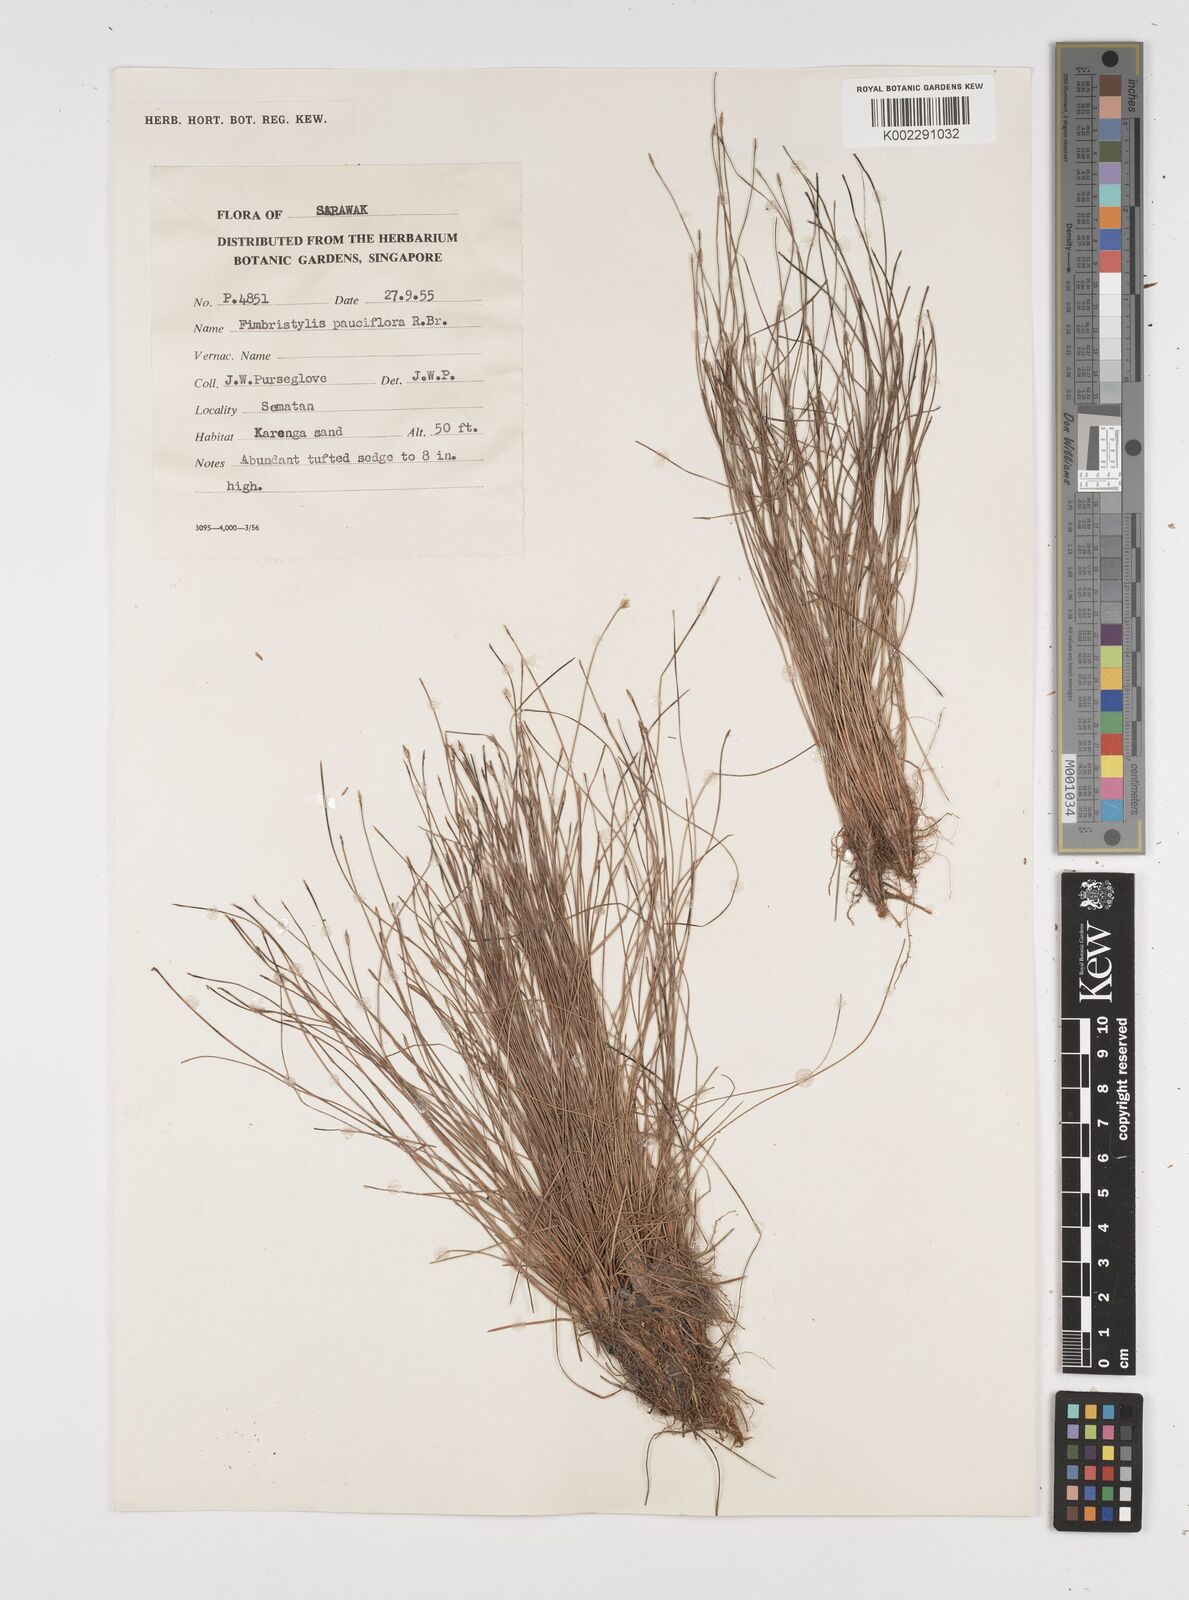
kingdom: Plantae
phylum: Tracheophyta
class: Liliopsida
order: Poales
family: Cyperaceae
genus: Fimbristylis
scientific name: Fimbristylis pauciflora
